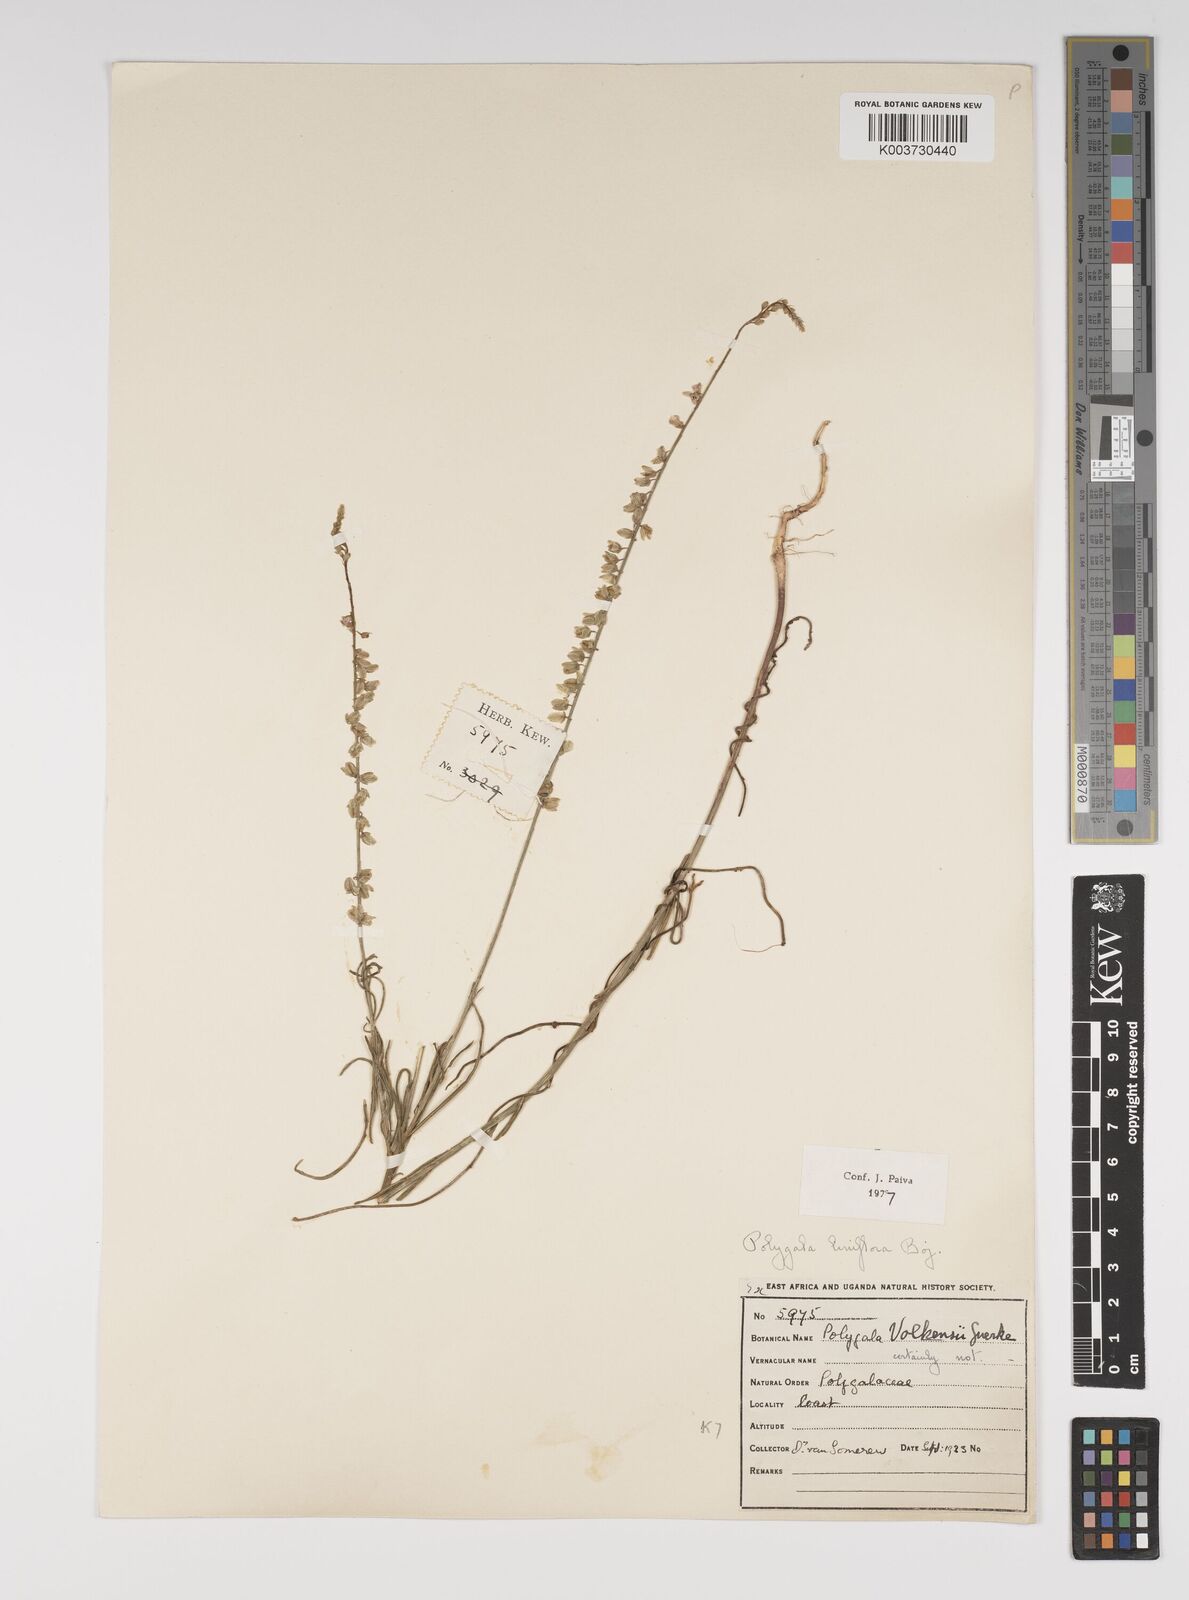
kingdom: Plantae
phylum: Tracheophyta
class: Magnoliopsida
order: Fabales
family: Polygalaceae
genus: Polygala
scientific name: Polygala conosperma
